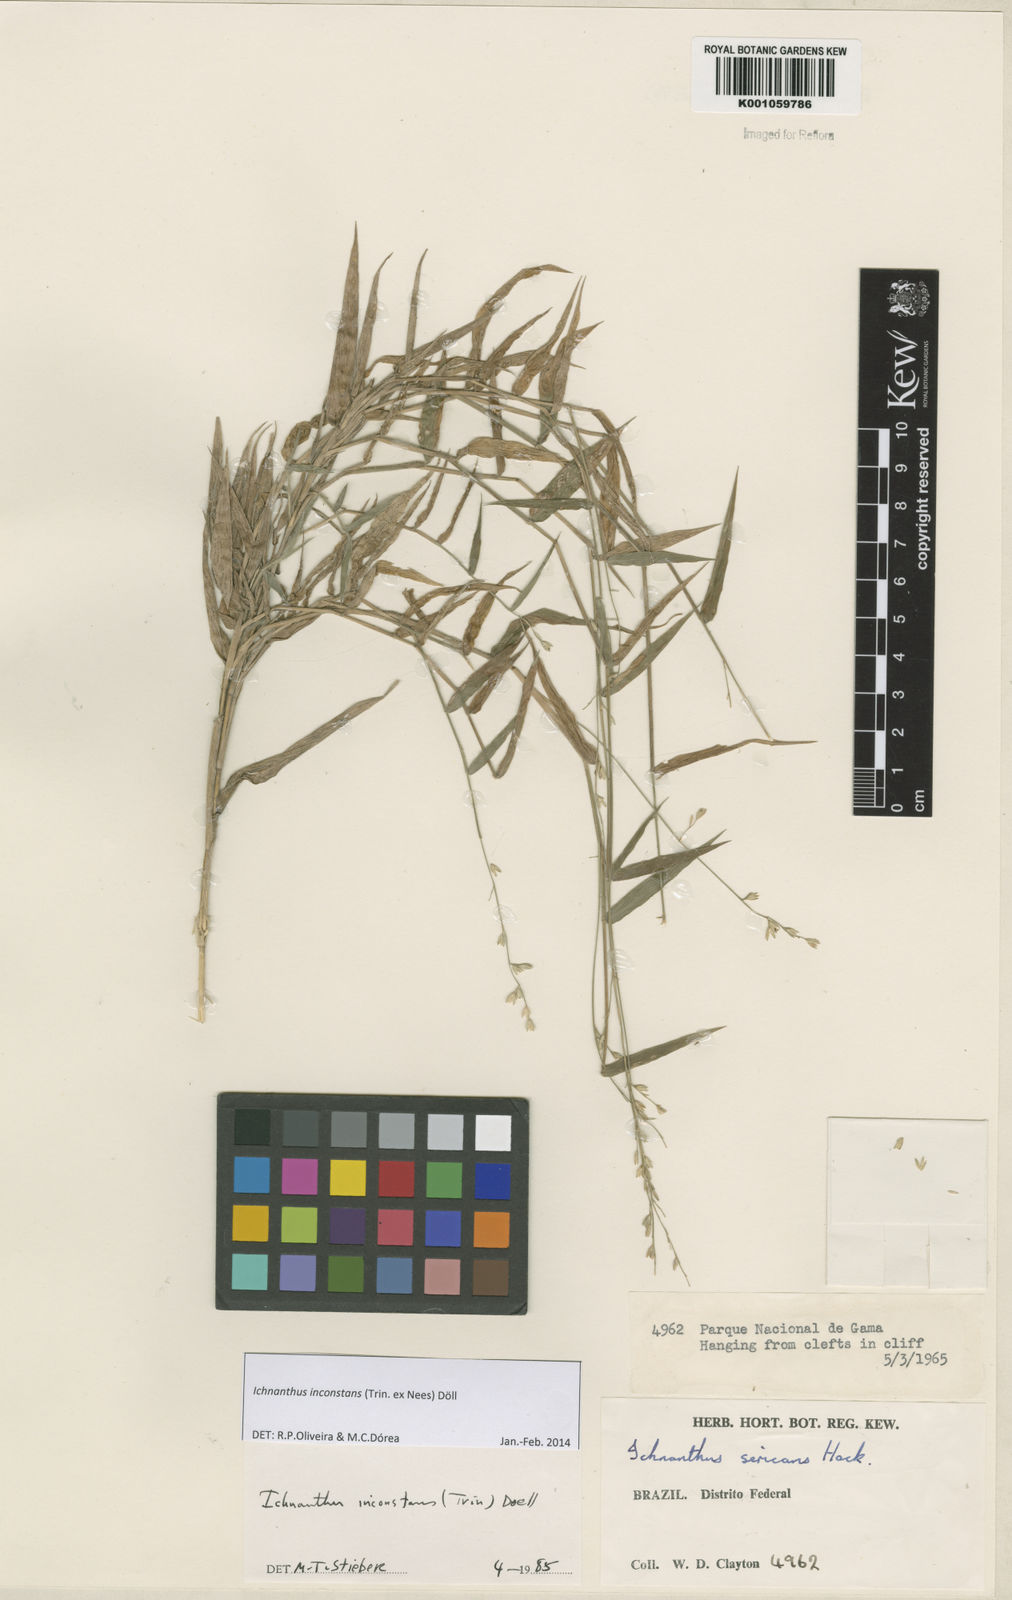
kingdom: Plantae
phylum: Tracheophyta
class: Liliopsida
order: Poales
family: Poaceae
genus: Ichnanthus
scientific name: Ichnanthus
